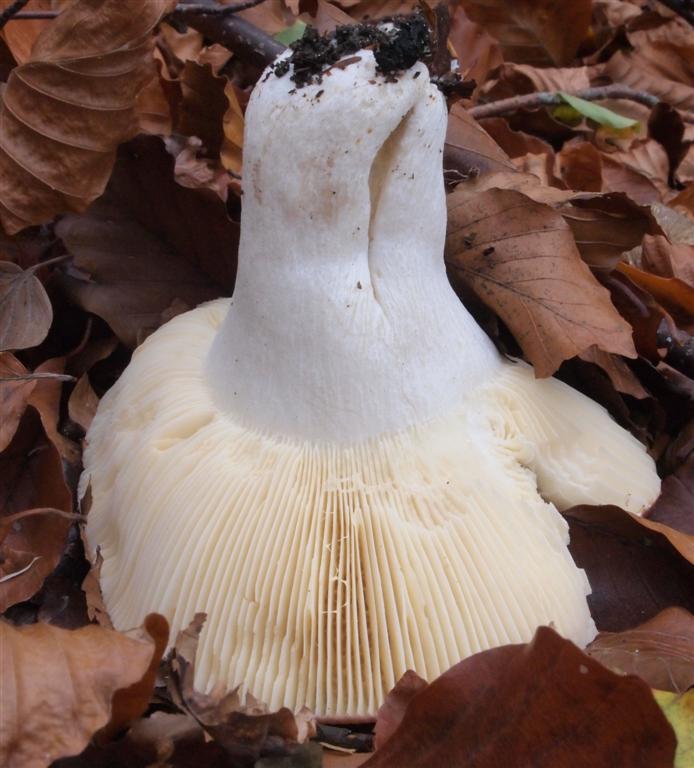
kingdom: Fungi
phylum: Basidiomycota
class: Agaricomycetes
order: Russulales
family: Russulaceae
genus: Russula
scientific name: Russula
